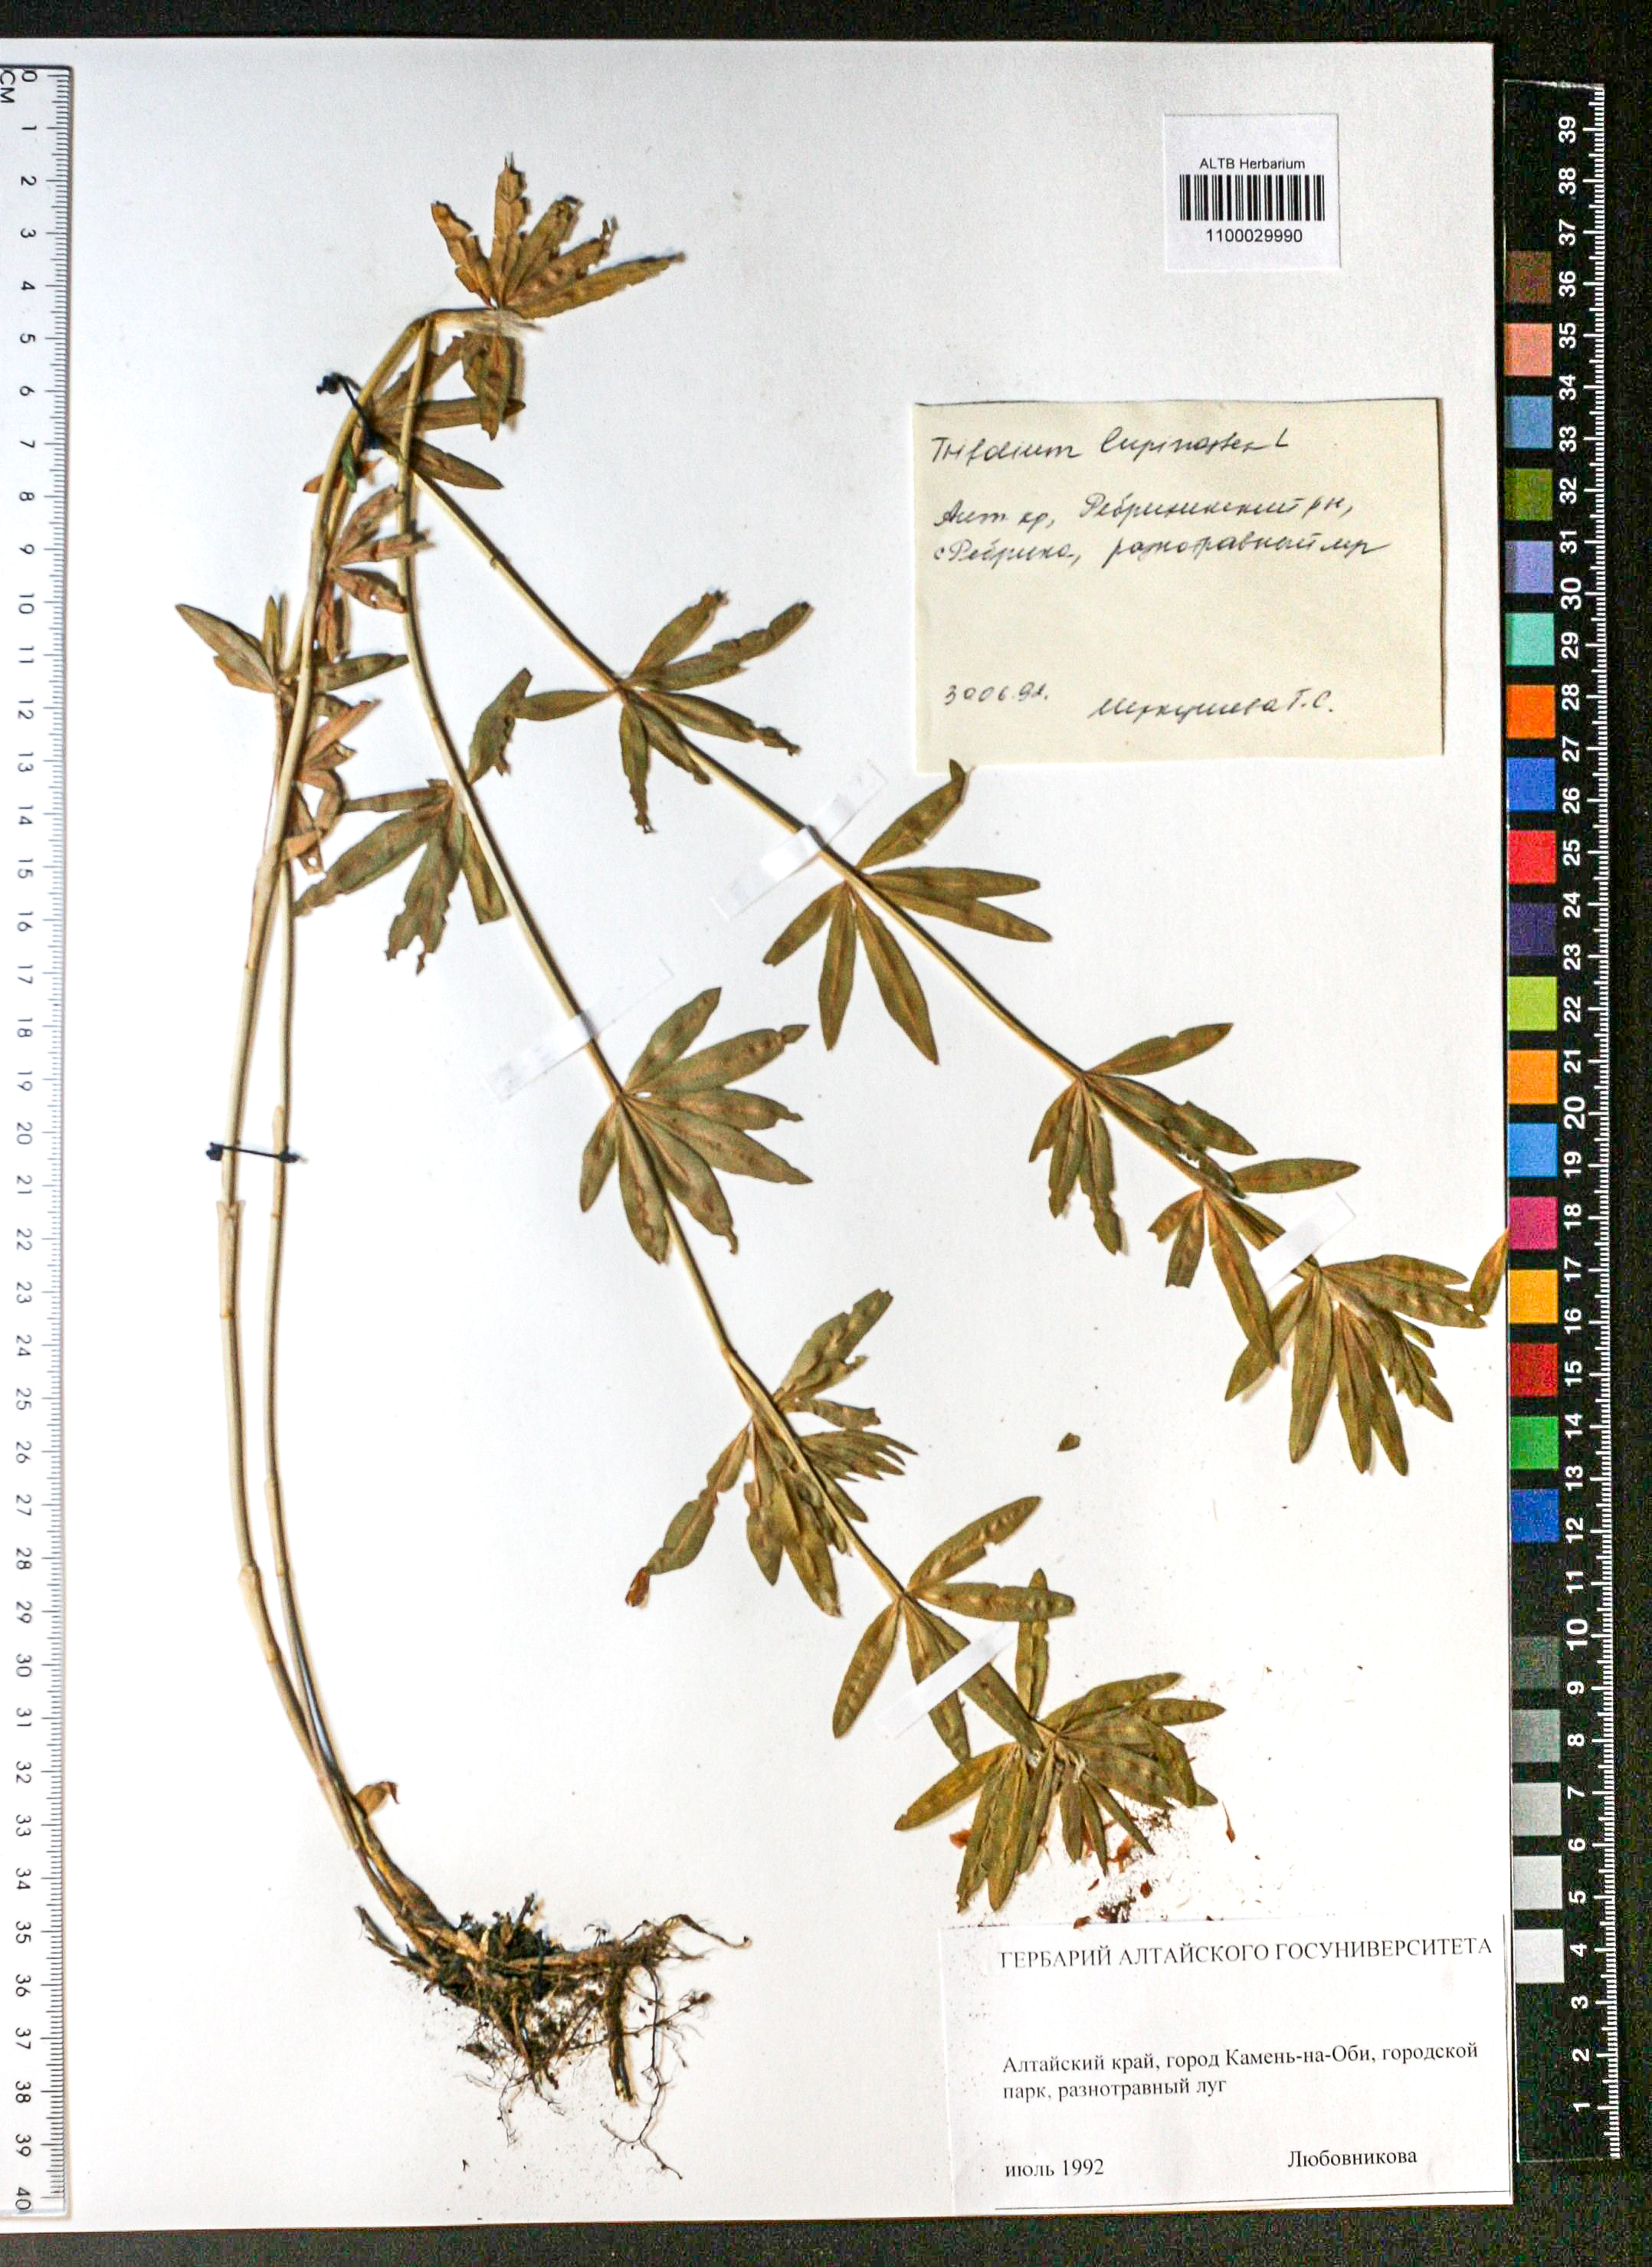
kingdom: Plantae
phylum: Tracheophyta
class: Magnoliopsida
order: Fabales
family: Fabaceae
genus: Trifolium
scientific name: Trifolium lupinaster
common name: Lupine clover
